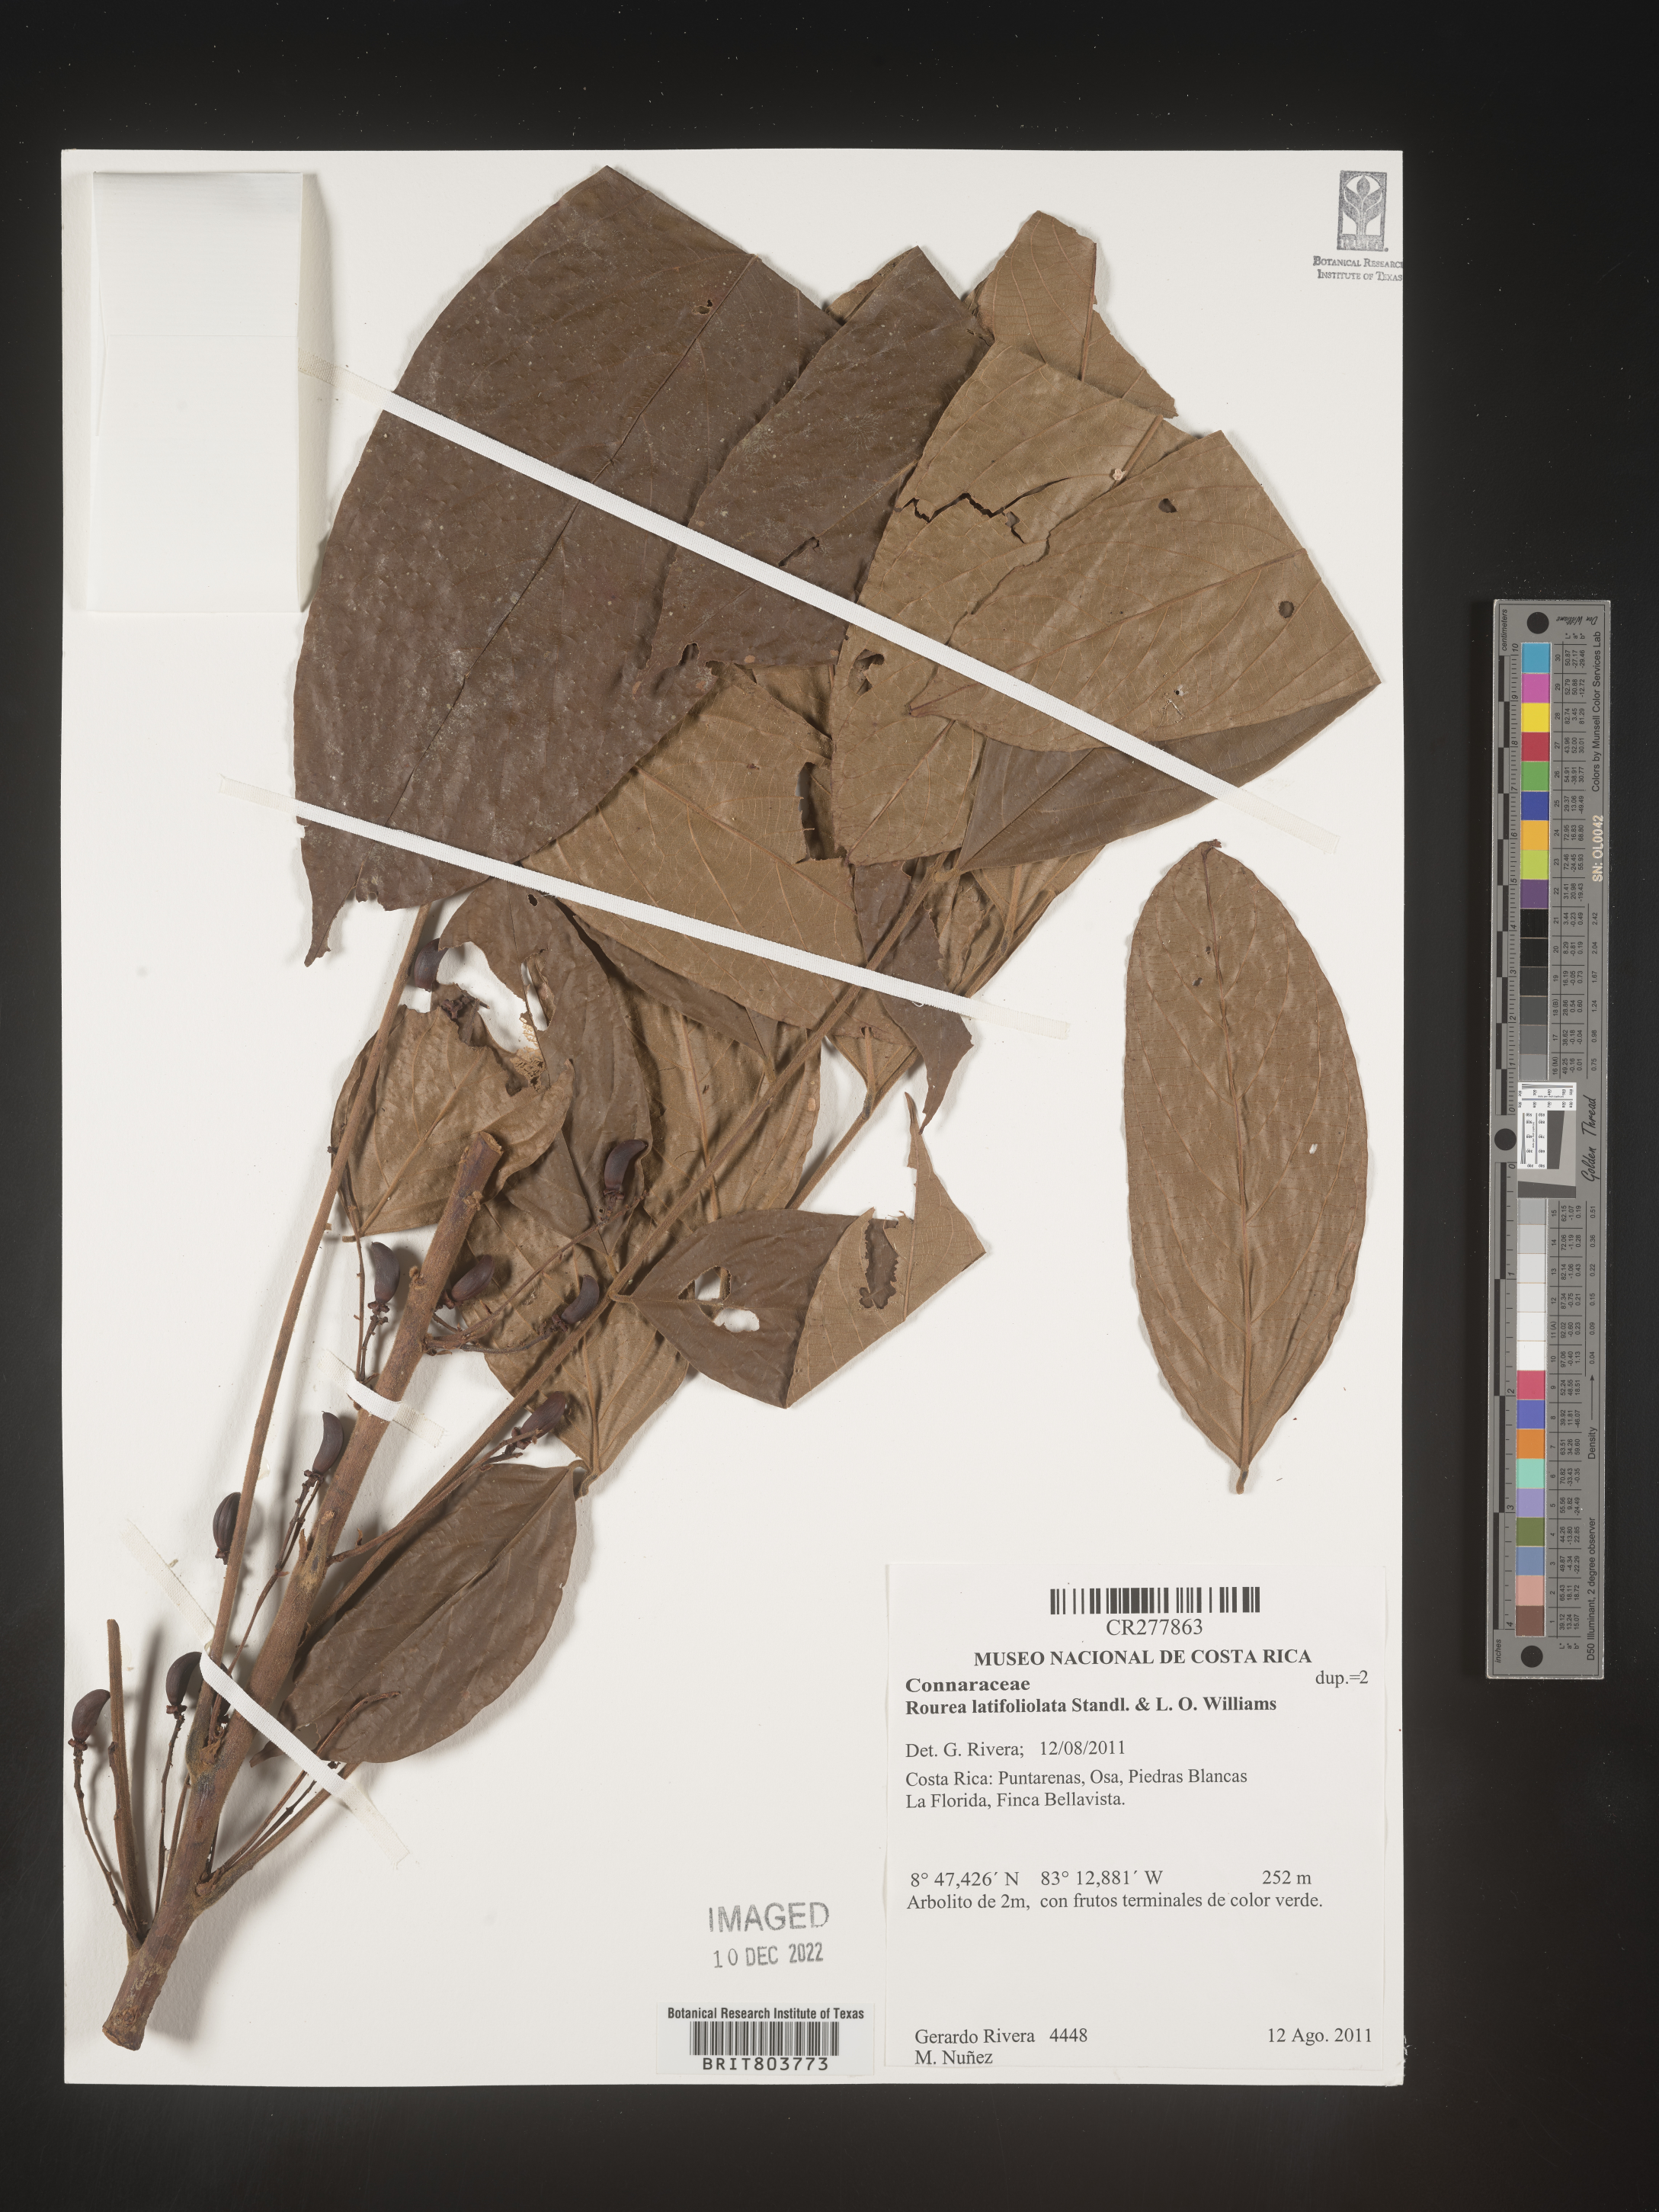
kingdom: Plantae
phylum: Tracheophyta
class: Magnoliopsida
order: Oxalidales
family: Connaraceae
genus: Rourea
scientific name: Rourea
